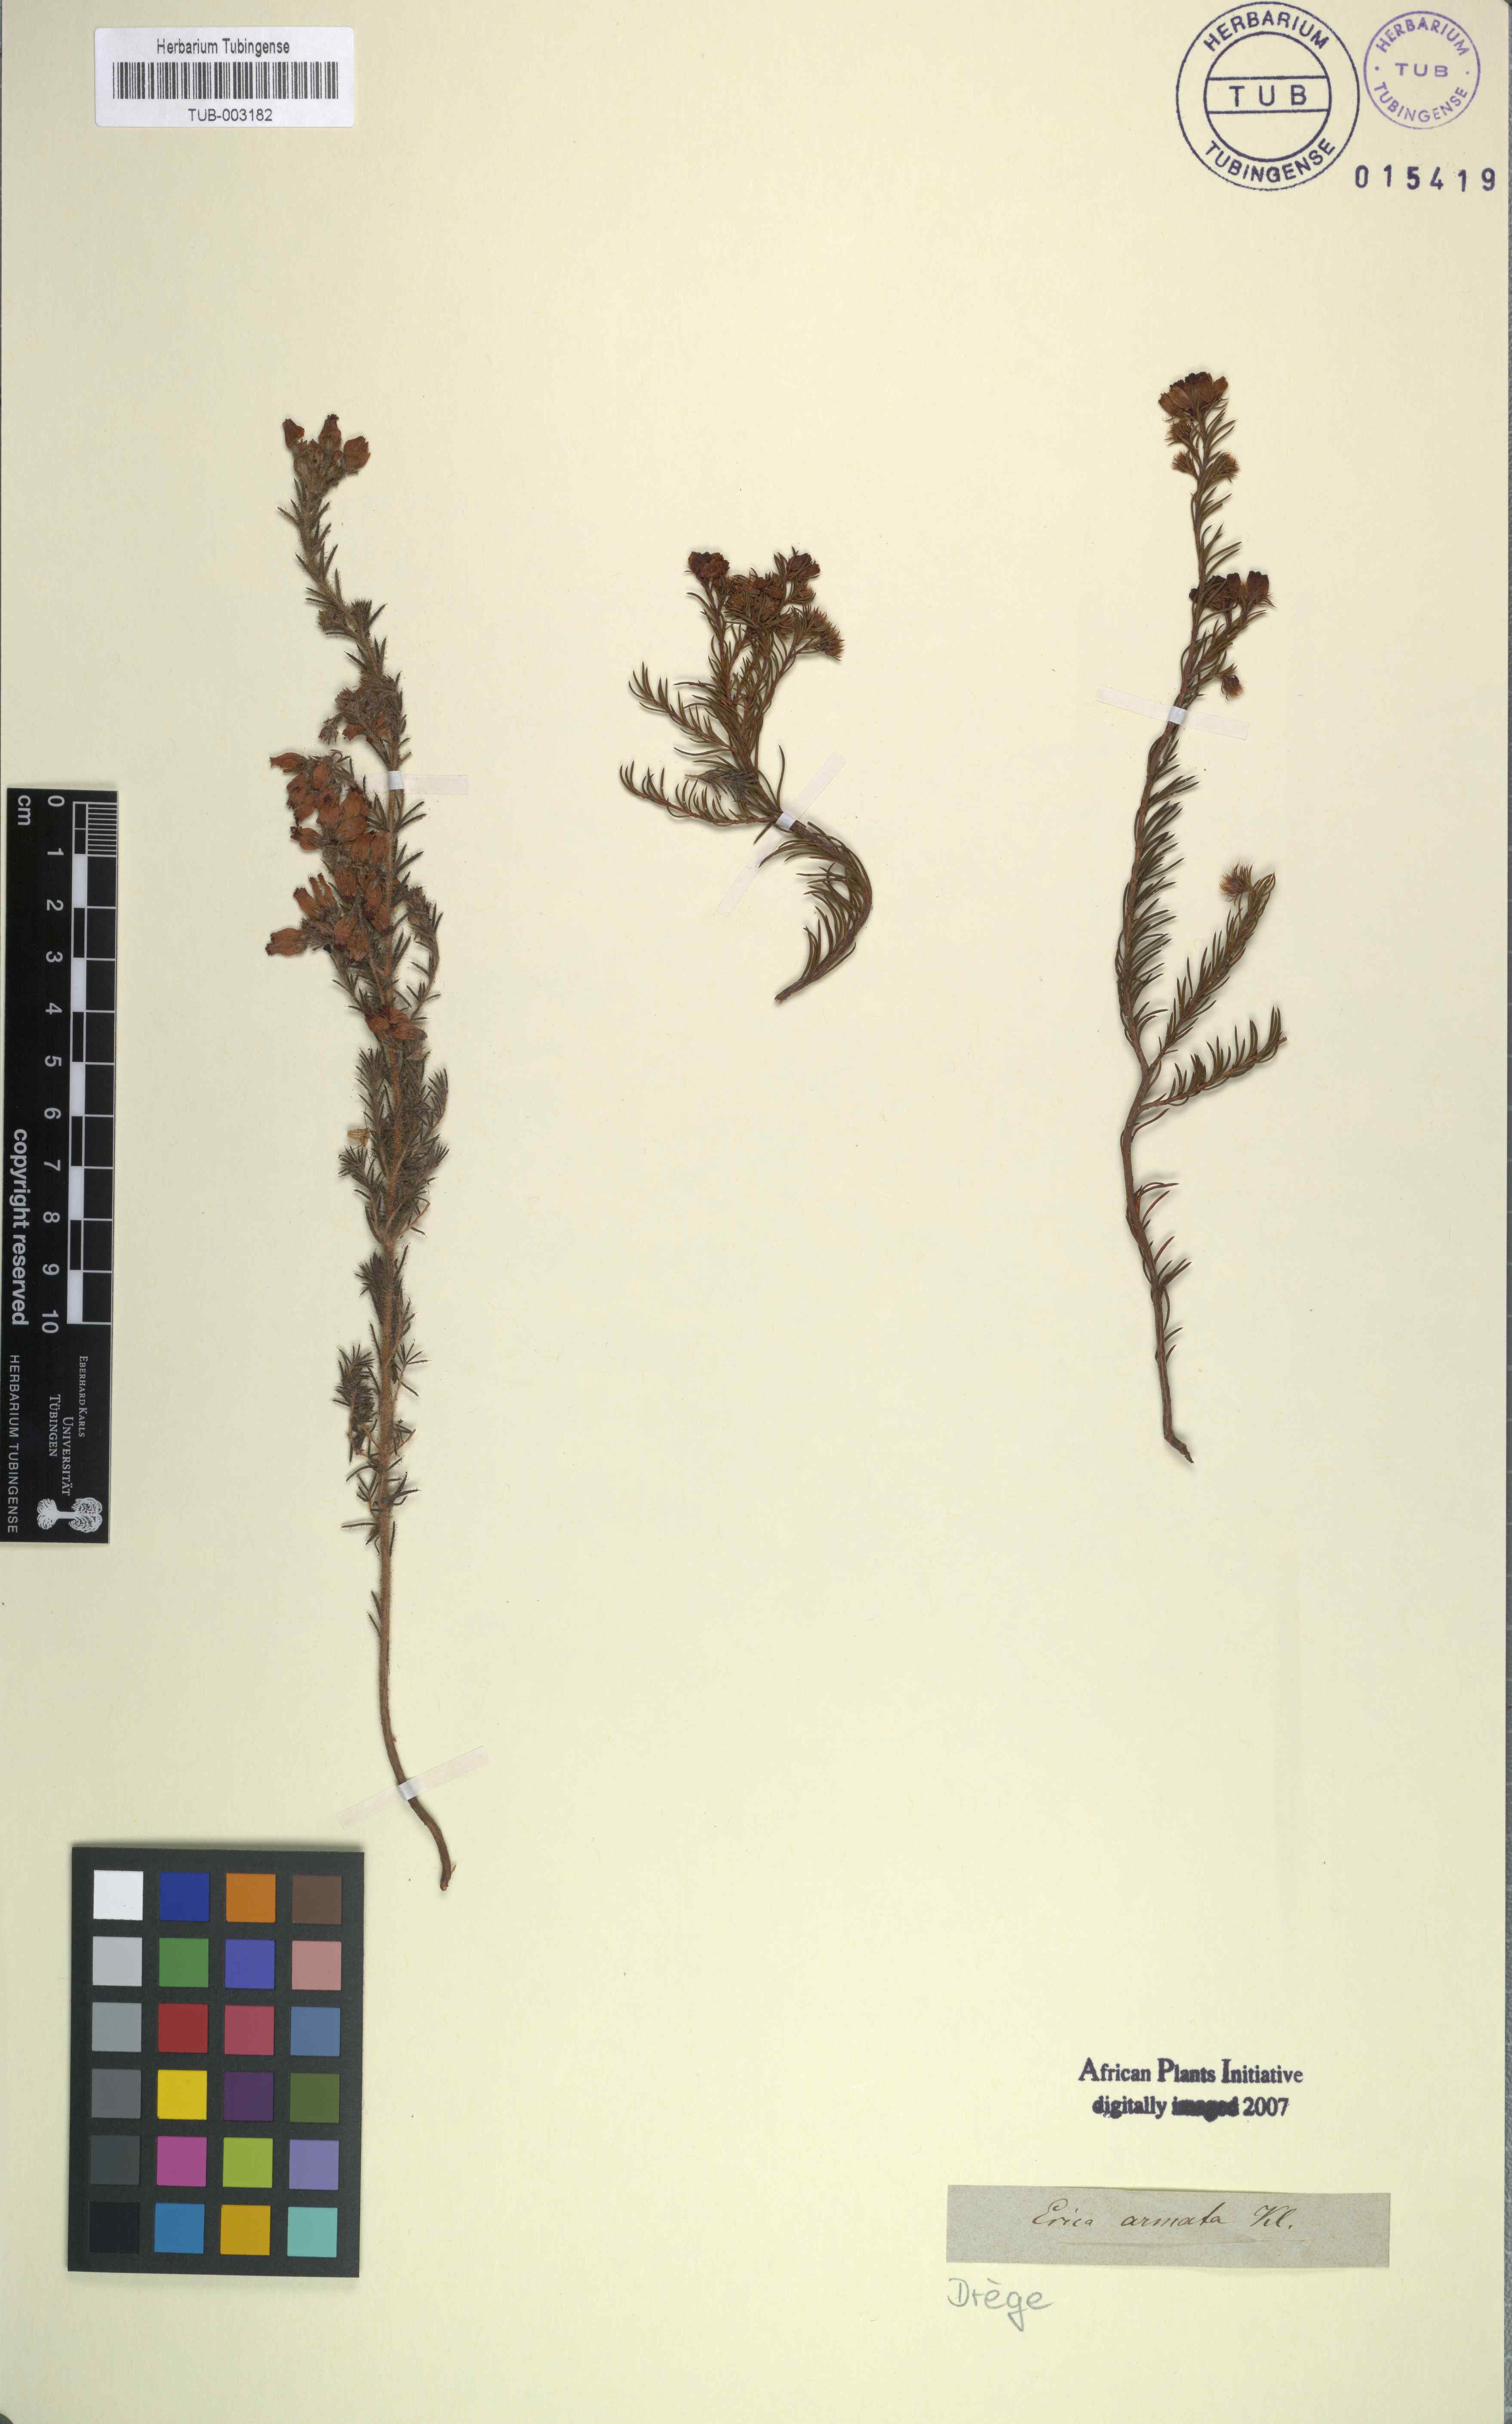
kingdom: Plantae
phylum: Tracheophyta
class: Magnoliopsida
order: Ericales
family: Ericaceae
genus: Erica
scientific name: Erica armata
